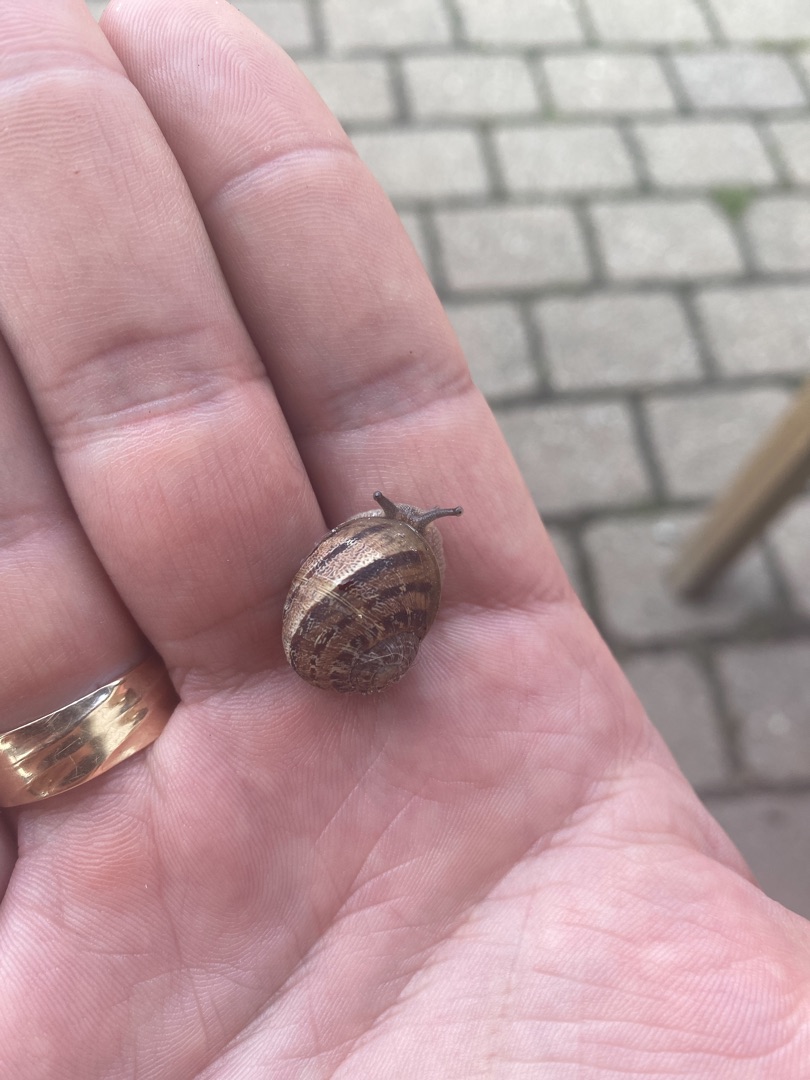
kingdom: Animalia
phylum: Mollusca
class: Gastropoda
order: Stylommatophora
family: Helicidae
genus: Cornu
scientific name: Cornu aspersum
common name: Plettet voldsnegl
